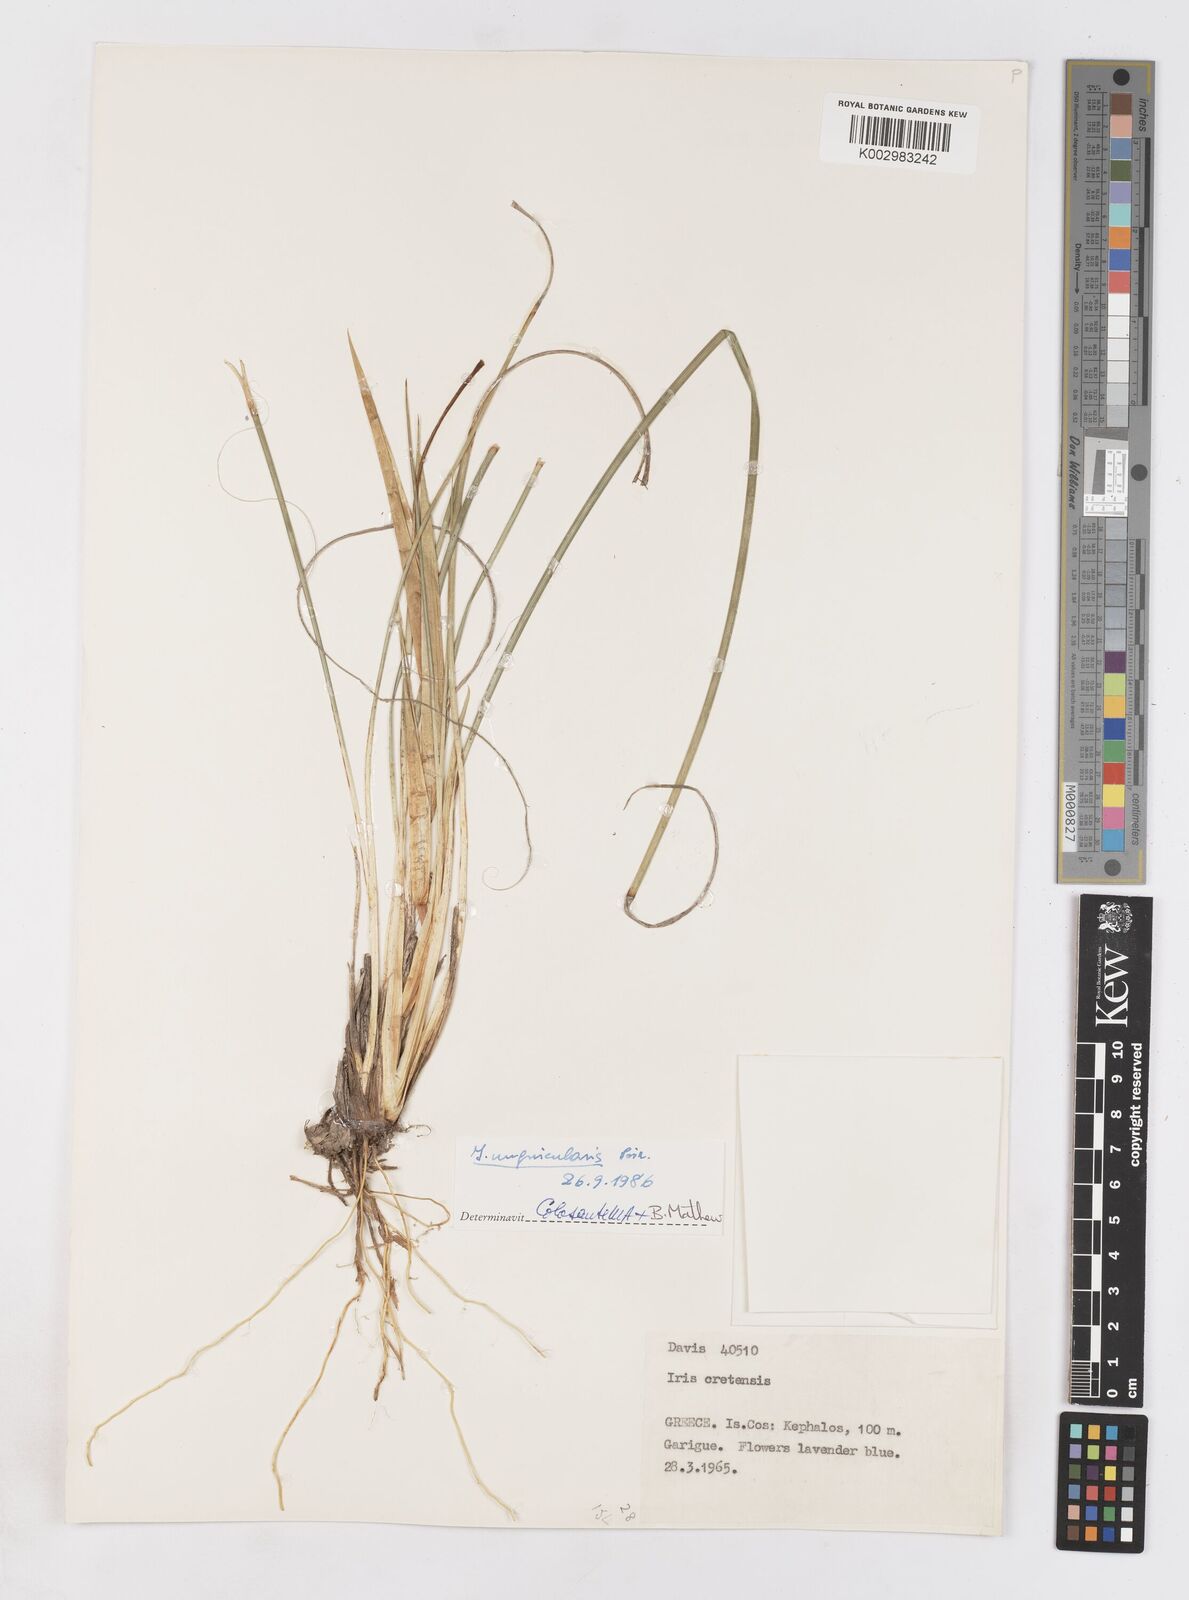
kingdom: Plantae
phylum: Tracheophyta
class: Liliopsida
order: Asparagales
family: Iridaceae
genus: Iris
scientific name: Iris unguicularis
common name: Algerian iris
